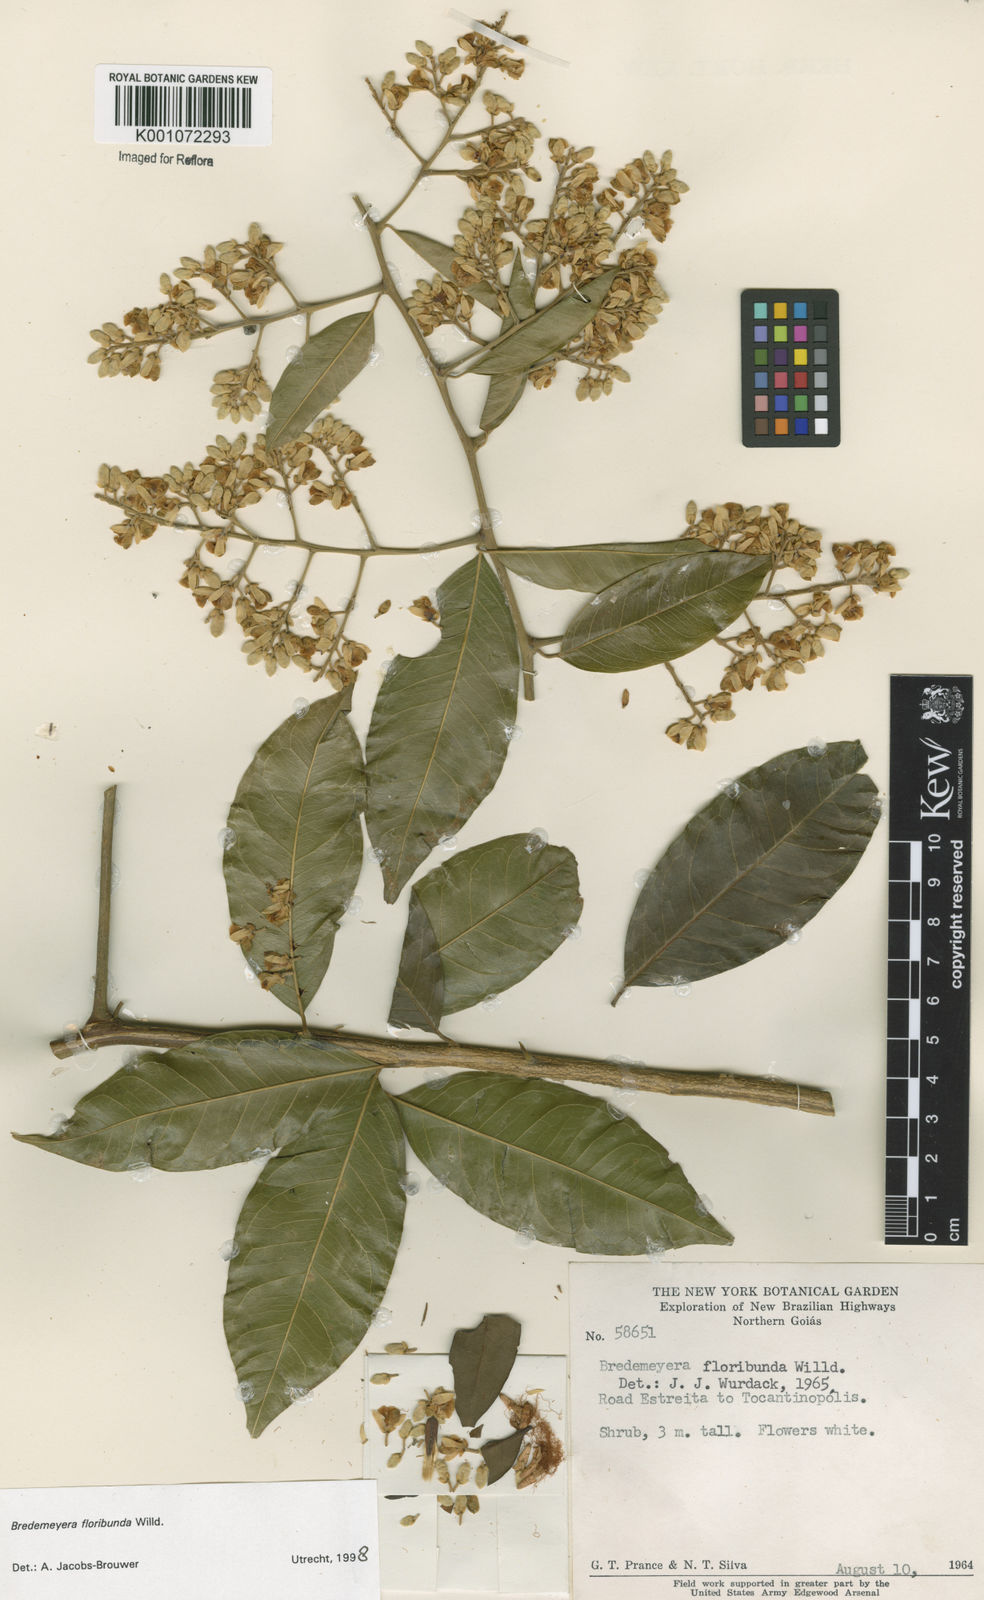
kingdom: Plantae
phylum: Tracheophyta
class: Magnoliopsida
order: Fabales
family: Polygalaceae
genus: Bredemeyera
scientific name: Bredemeyera floribunda
